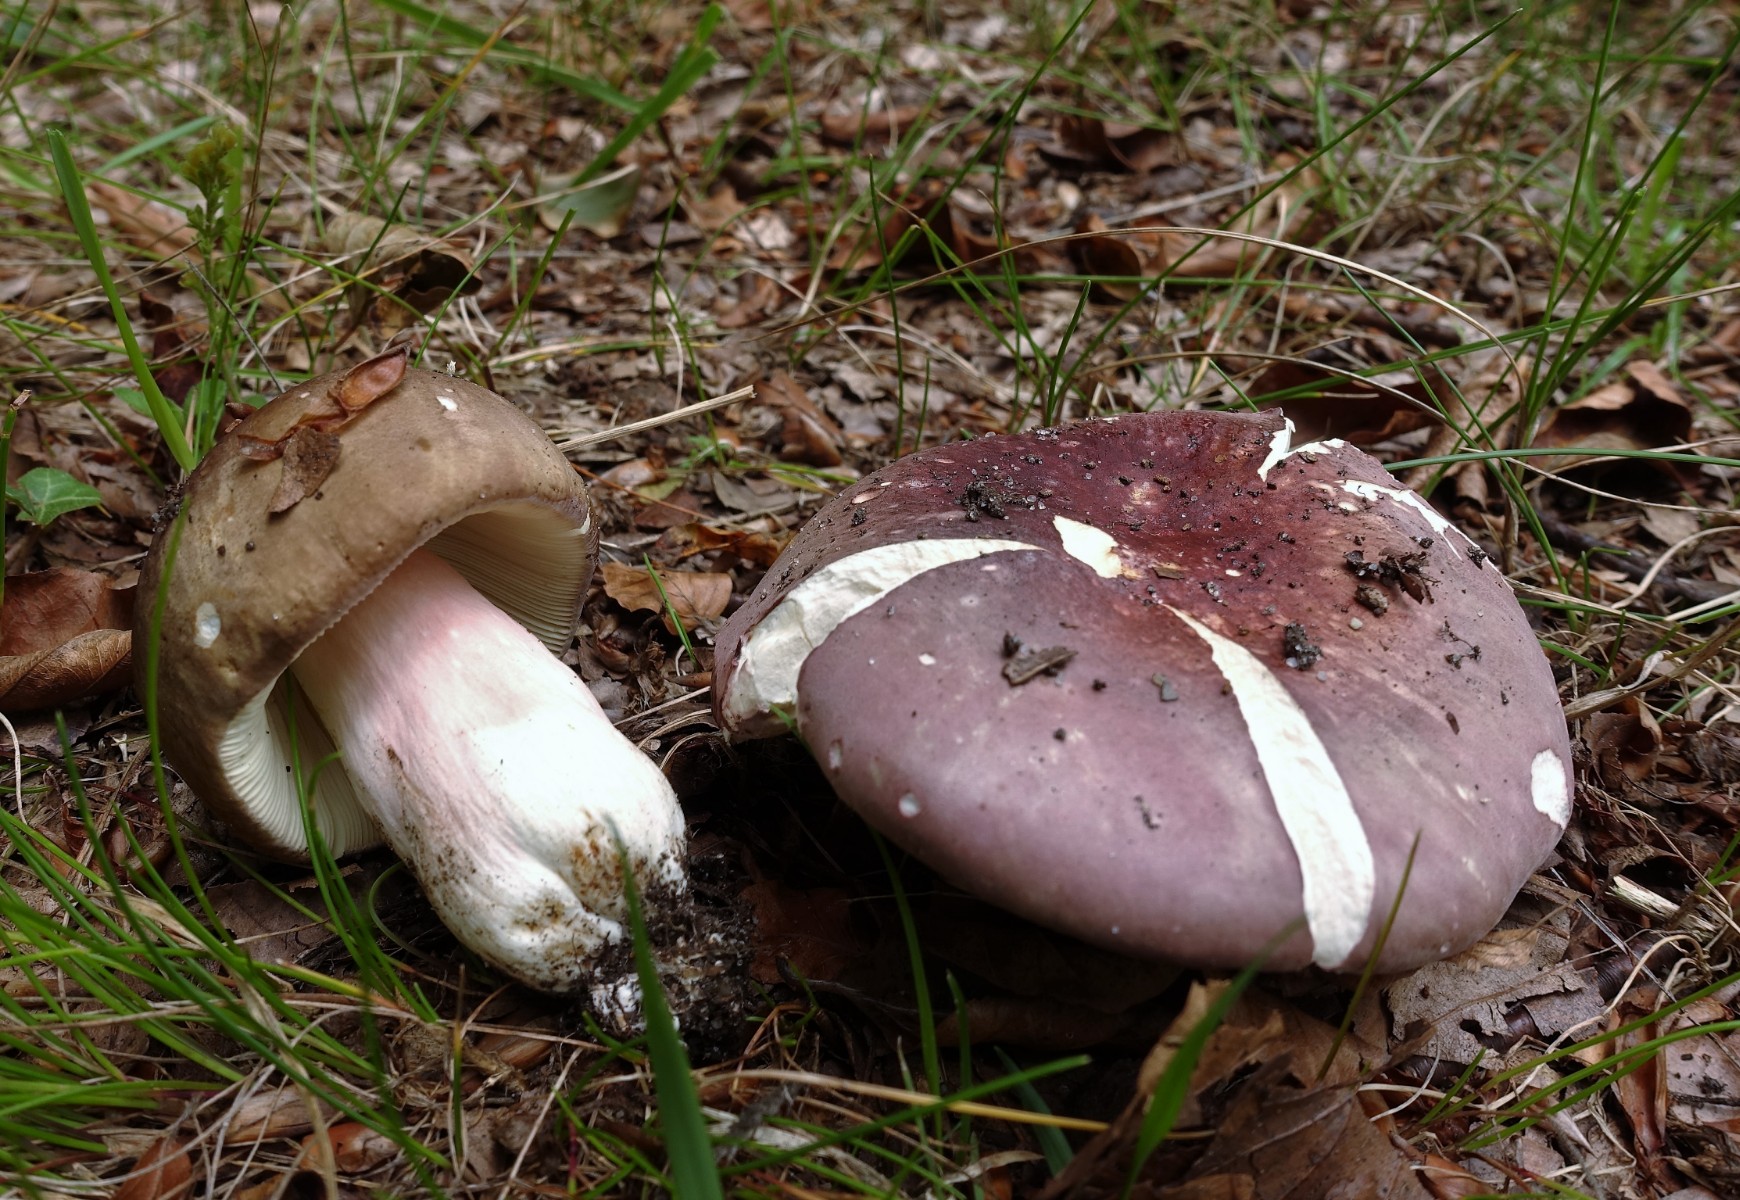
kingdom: Fungi
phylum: Basidiomycota
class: Agaricomycetes
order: Russulales
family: Russulaceae
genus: Russula
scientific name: Russula olivacea
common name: stor skørhat
